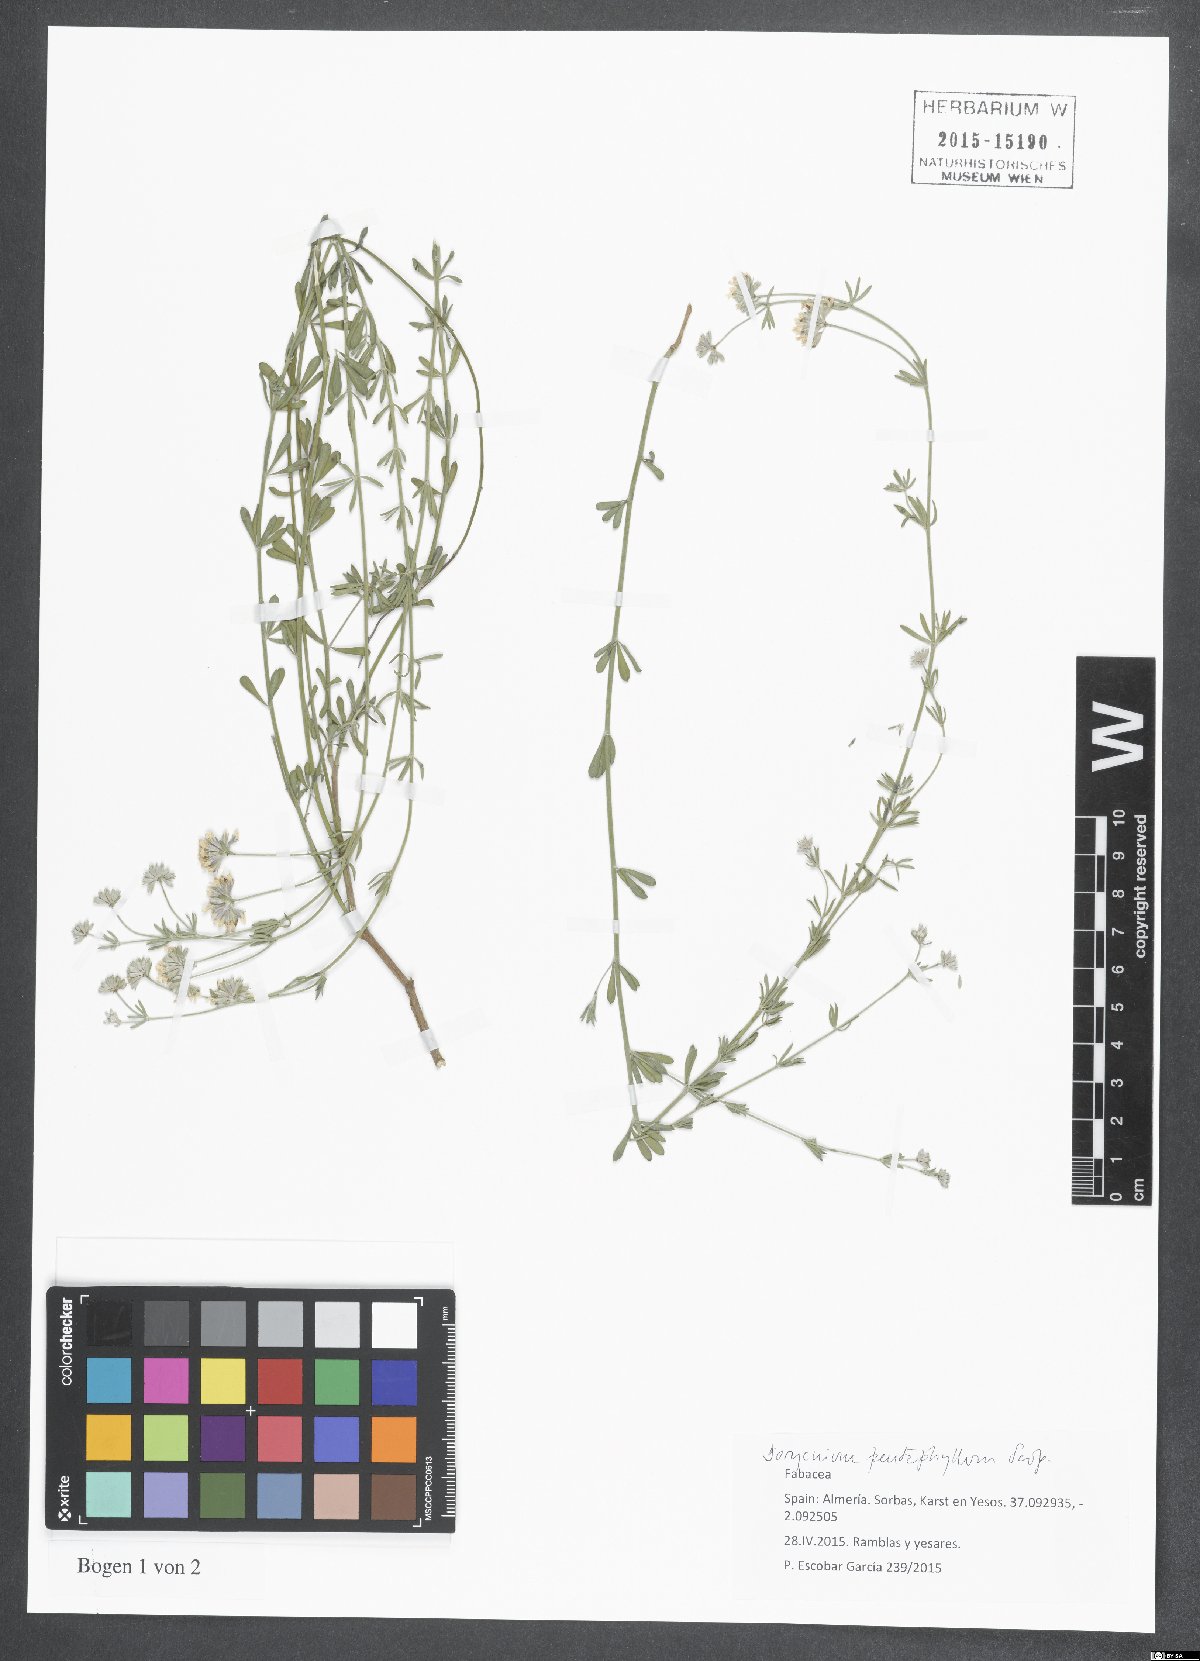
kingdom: Plantae
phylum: Tracheophyta
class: Magnoliopsida
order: Fabales
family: Fabaceae
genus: Lotus
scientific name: Lotus dorycnium
